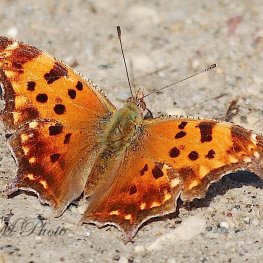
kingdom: Animalia
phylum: Arthropoda
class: Insecta
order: Lepidoptera
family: Nymphalidae
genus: Polygonia
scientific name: Polygonia comma
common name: Eastern Comma
